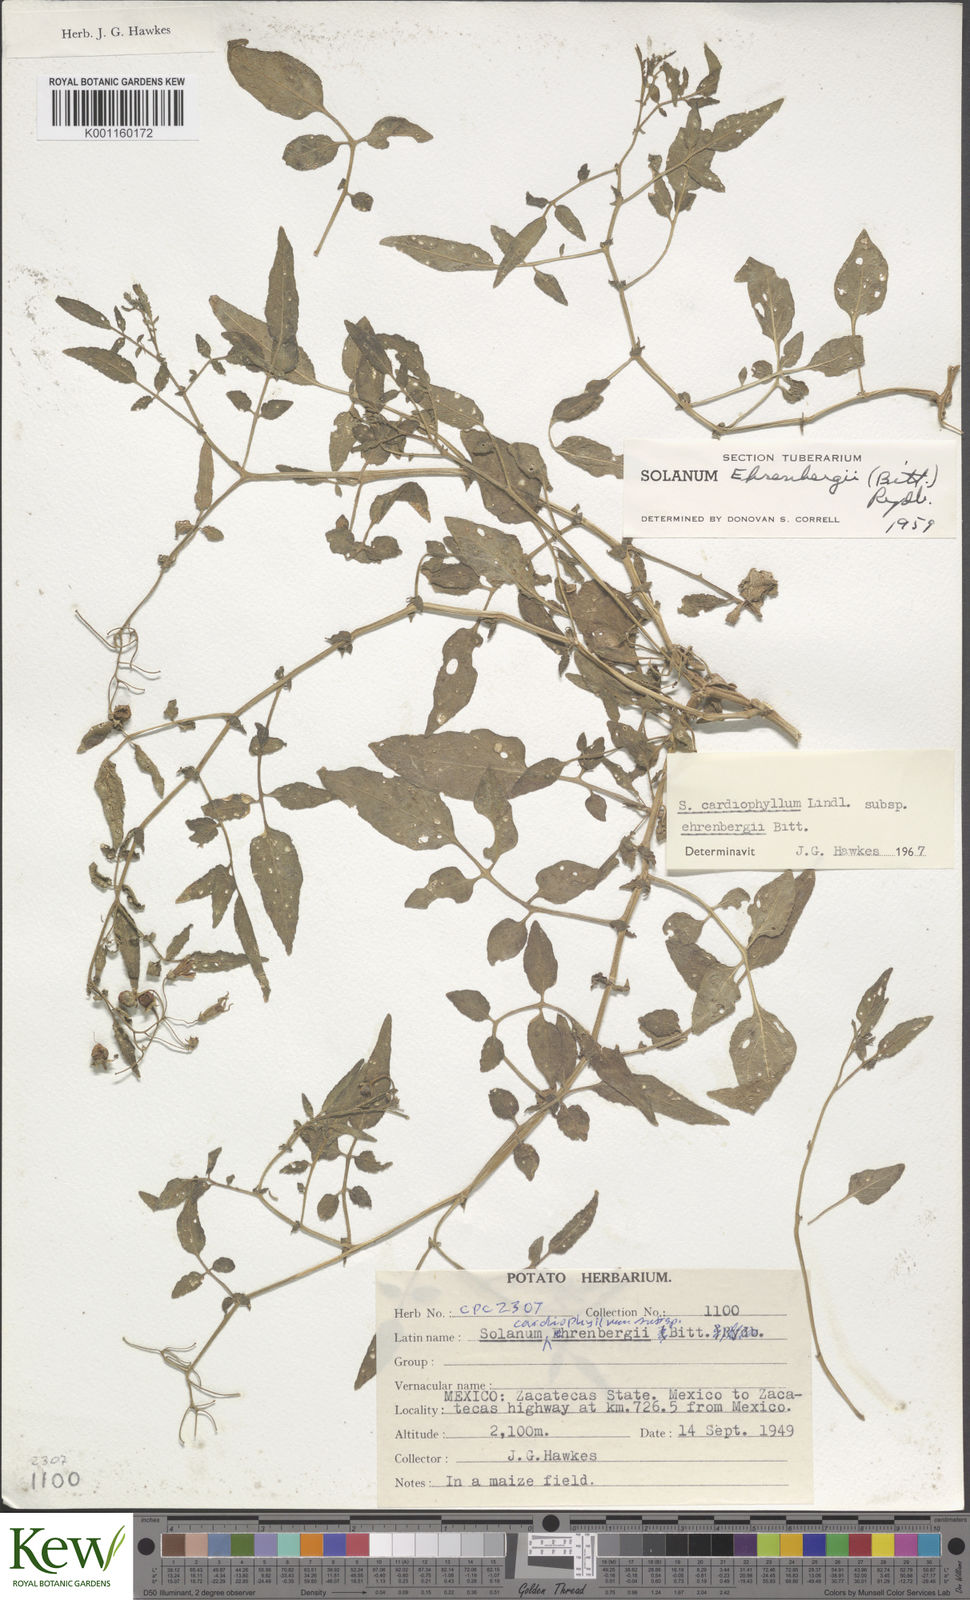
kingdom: Plantae
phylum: Tracheophyta
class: Magnoliopsida
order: Solanales
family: Solanaceae
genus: Solanum
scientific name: Solanum cardiophyllum
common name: Heartleaf horsenettle
